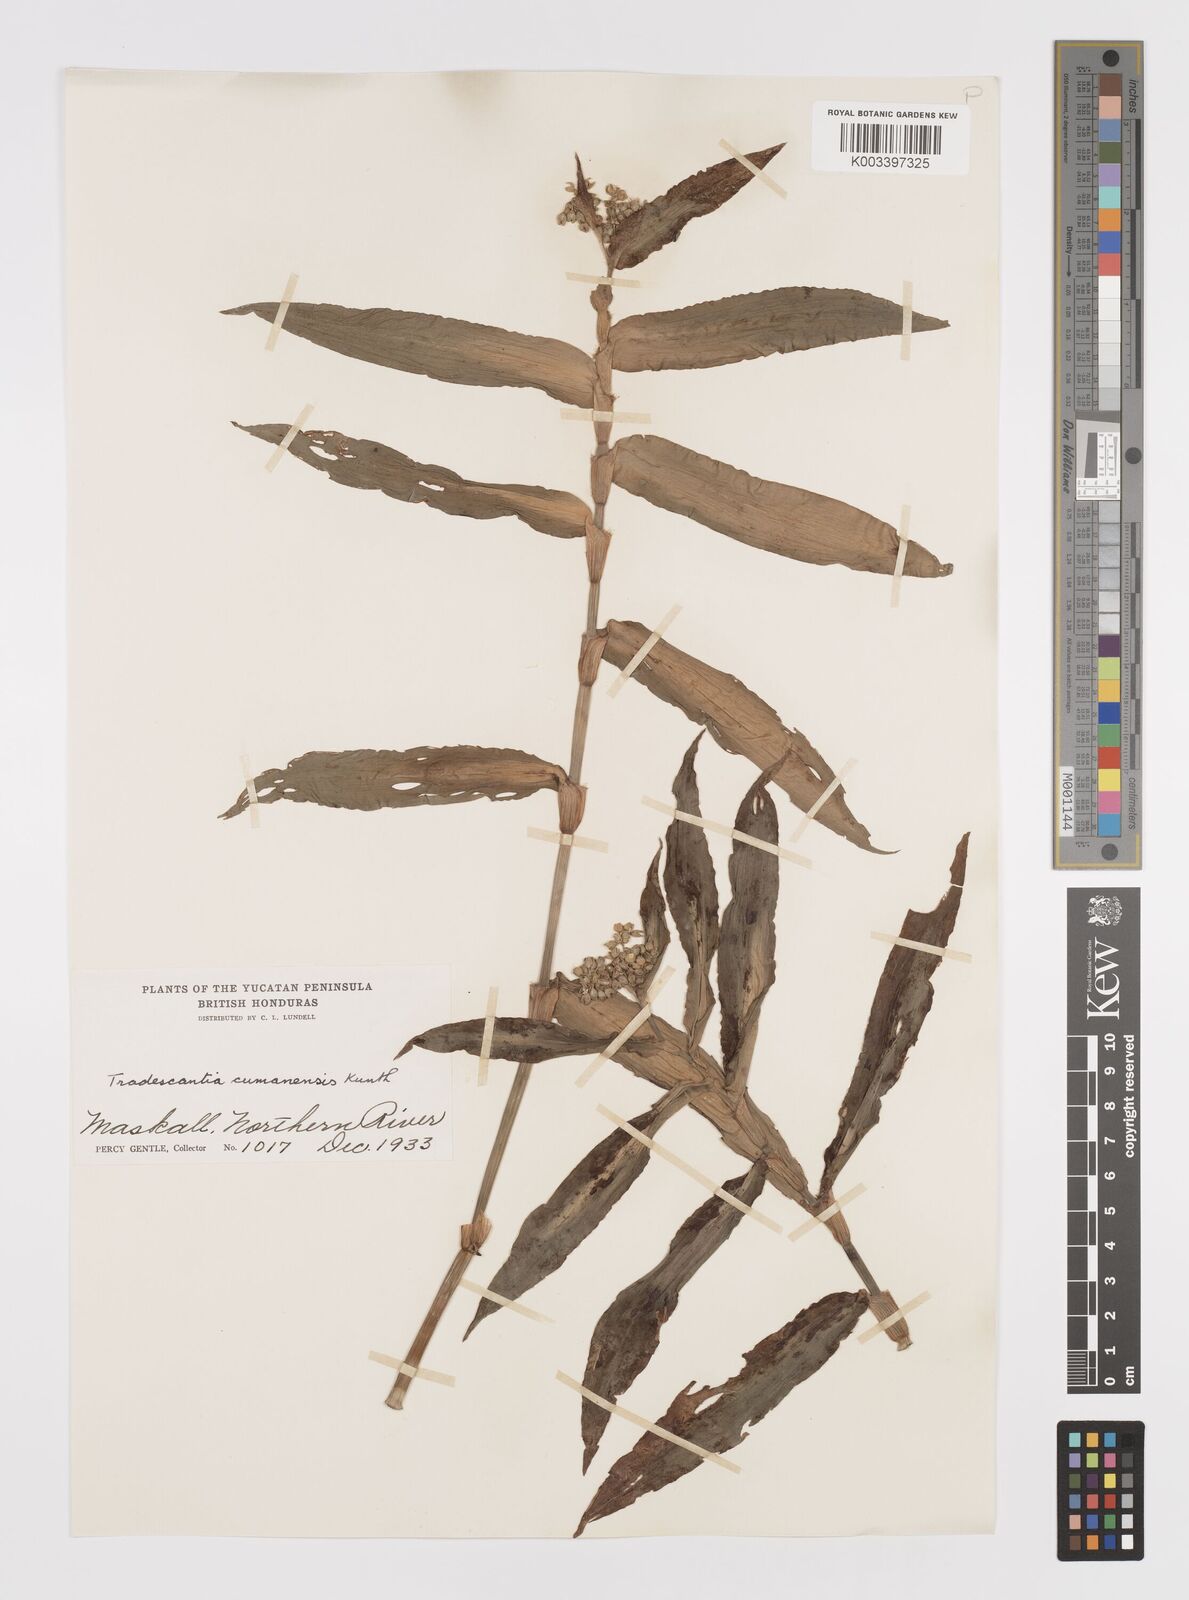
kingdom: Plantae
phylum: Tracheophyta
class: Liliopsida
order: Commelinales
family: Commelinaceae
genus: Callisia
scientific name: Callisia serrulata
